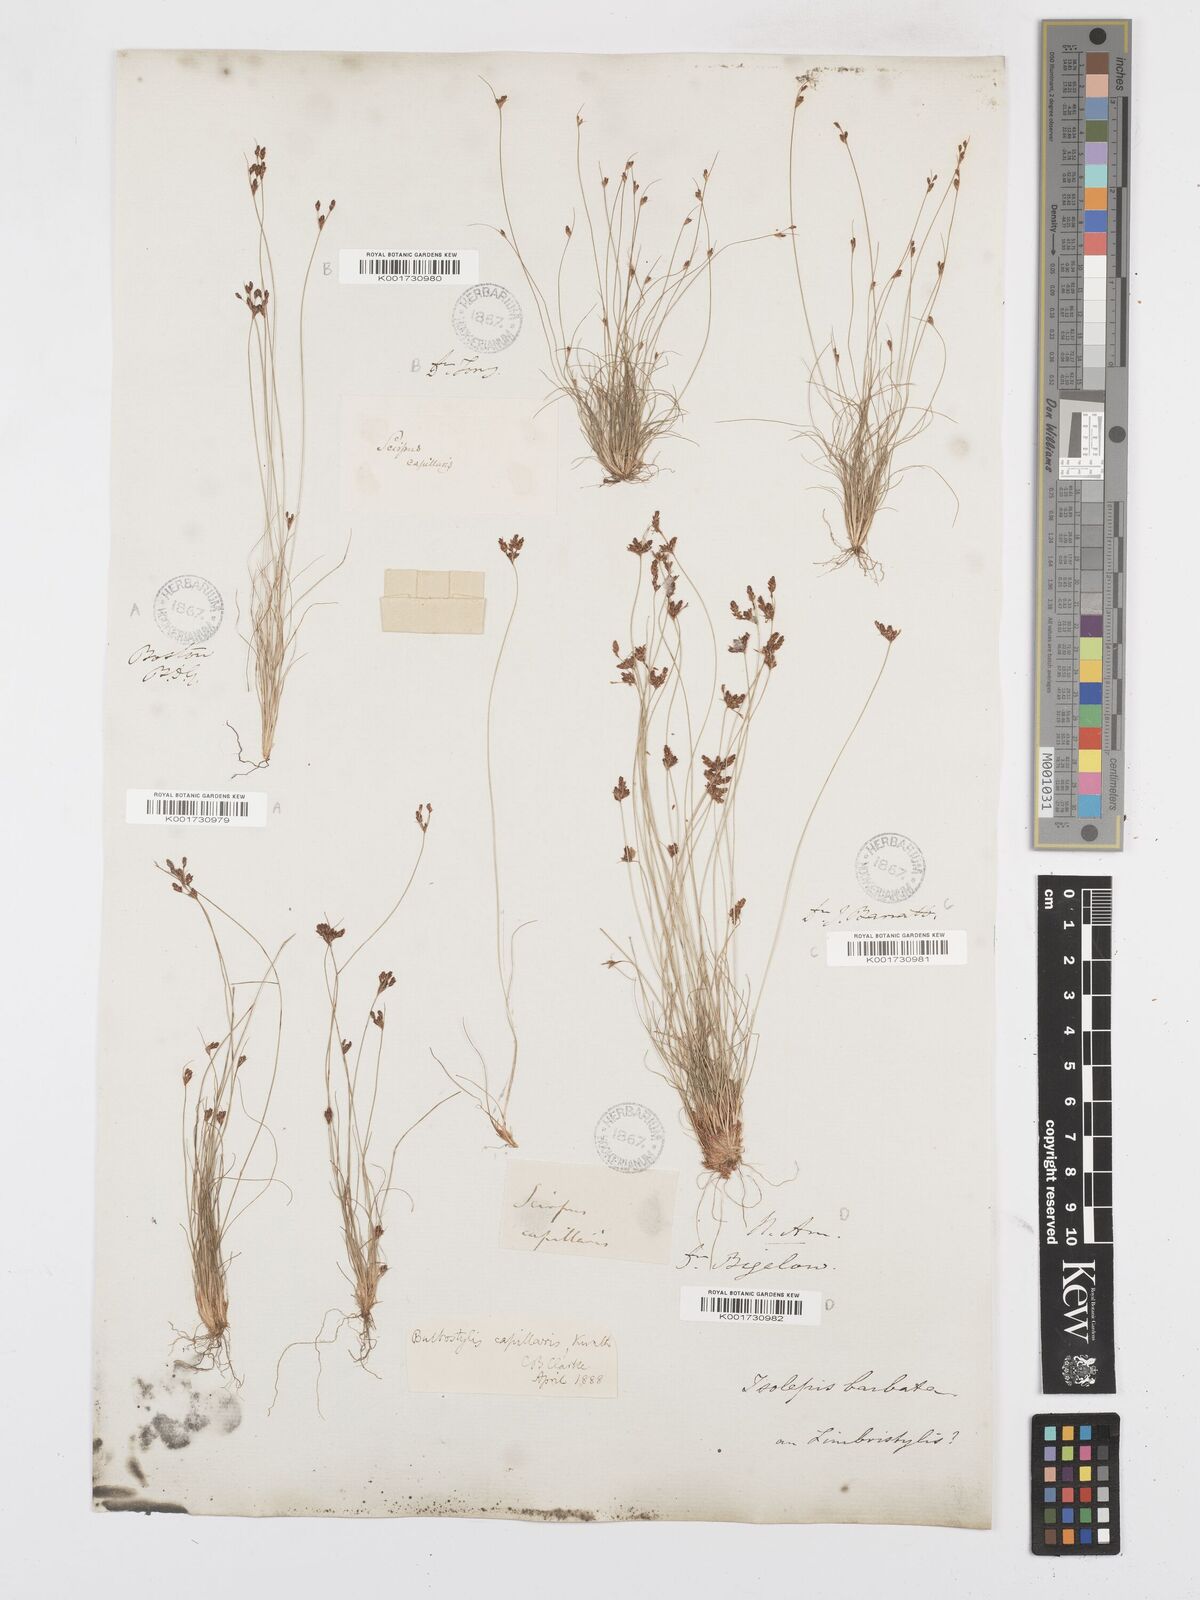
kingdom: Plantae
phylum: Tracheophyta
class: Liliopsida
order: Poales
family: Cyperaceae
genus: Bulbostylis
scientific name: Bulbostylis capillaris
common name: Densetuft hairsedge
